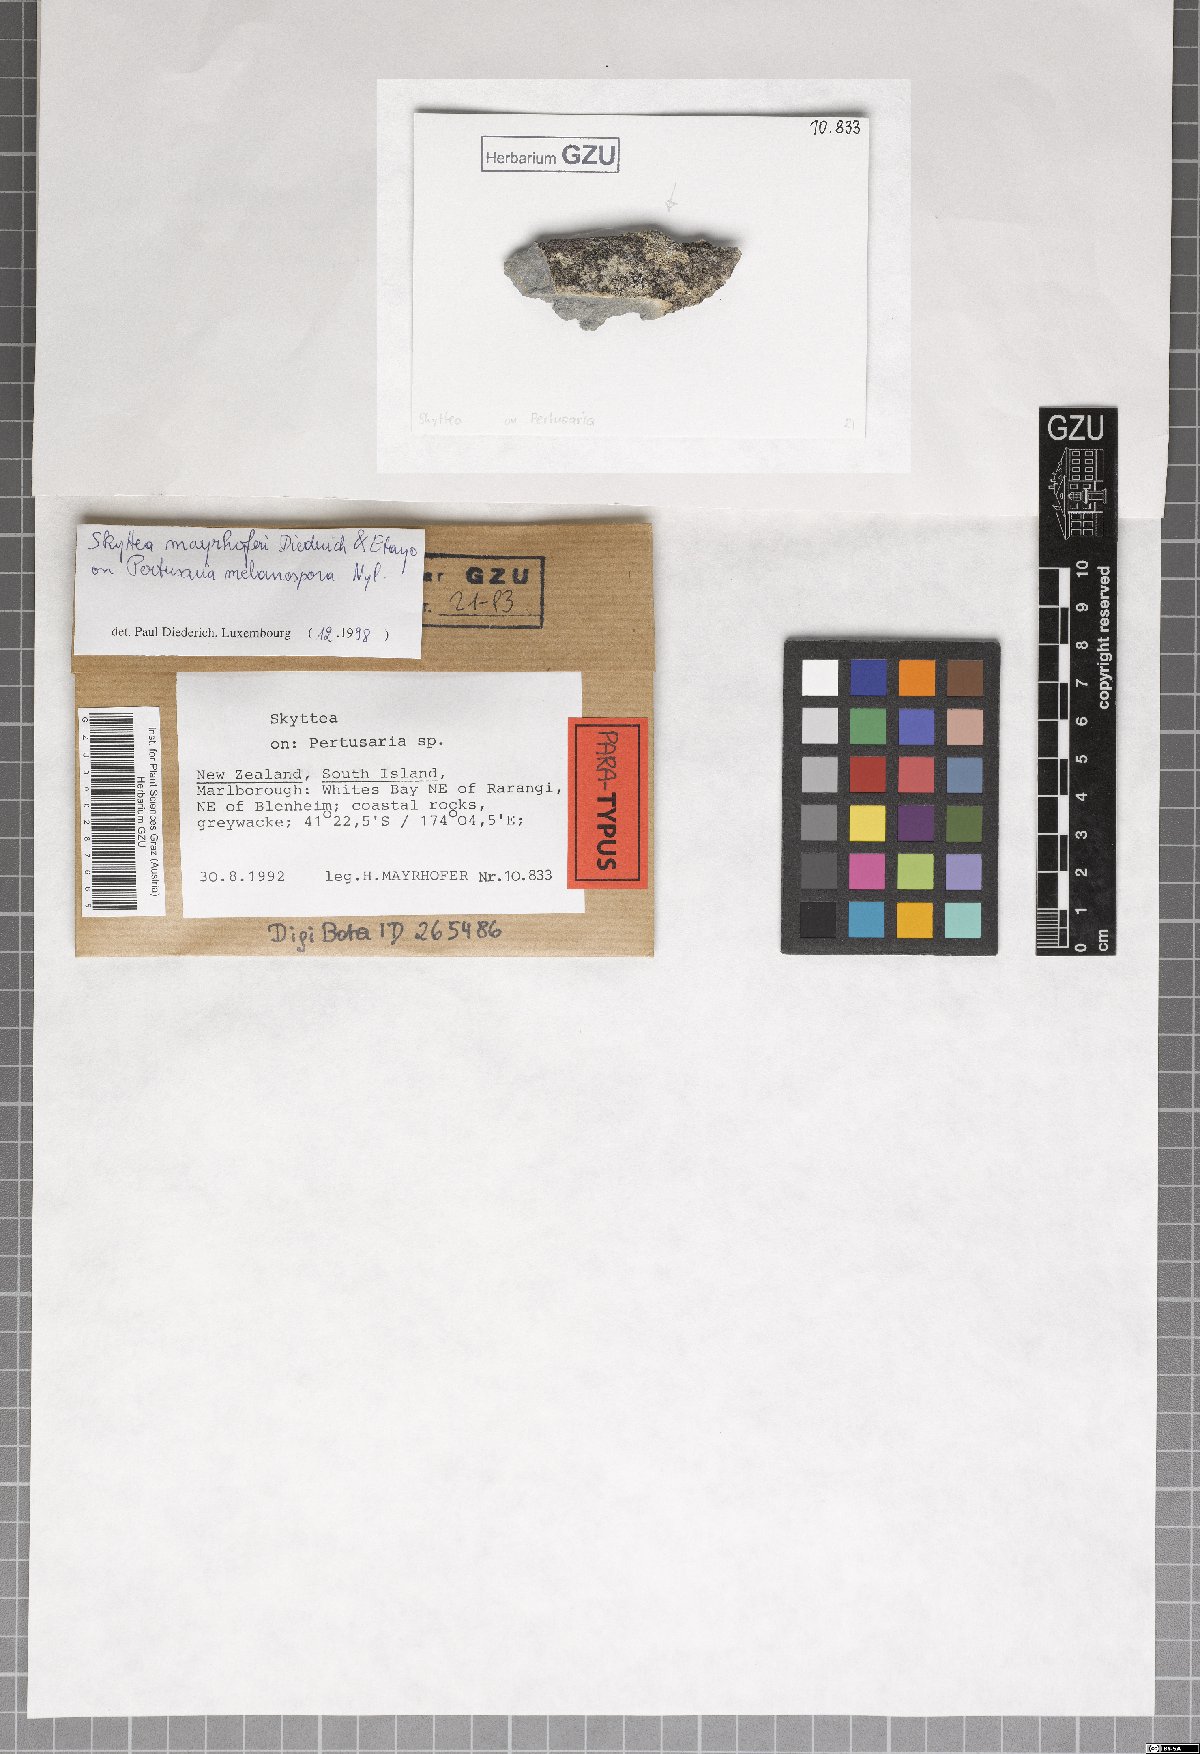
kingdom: Fungi
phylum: Ascomycota
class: Leotiomycetes
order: Helotiales
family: Cordieritidaceae
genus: Skyttea
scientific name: Skyttea mayrhoferi
